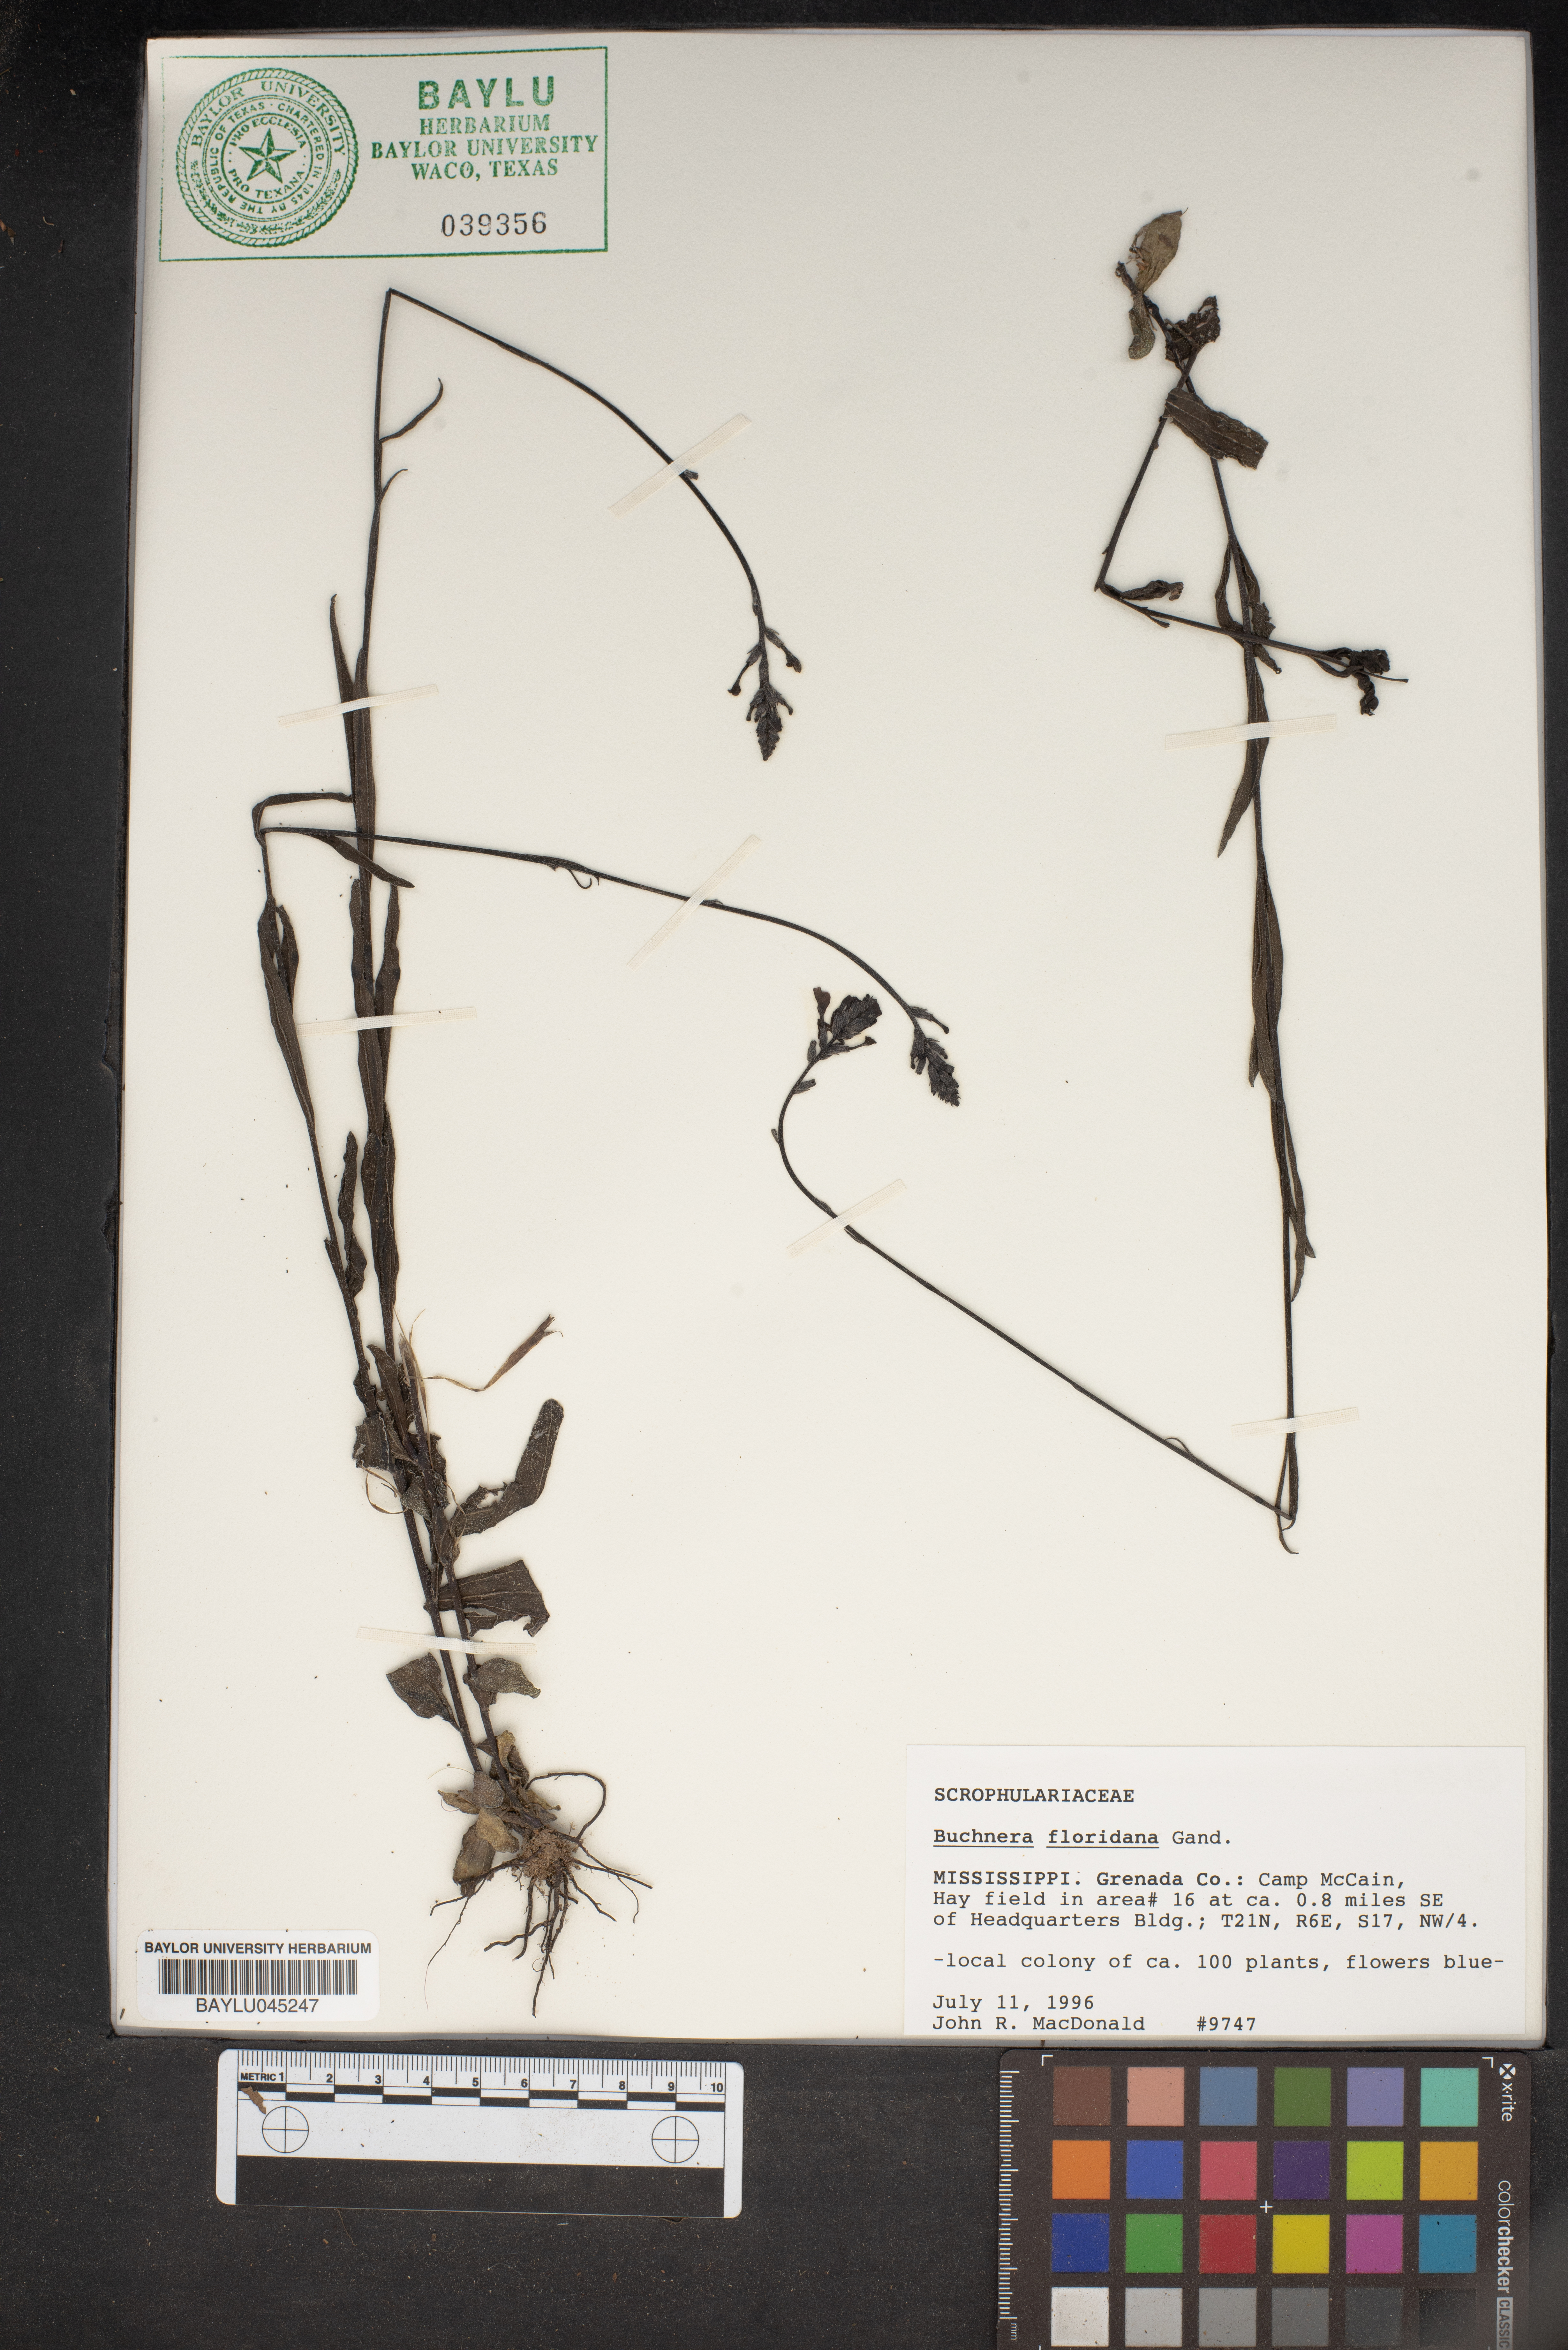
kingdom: Plantae
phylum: Tracheophyta
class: Magnoliopsida
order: Lamiales
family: Orobanchaceae
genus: Buchnera
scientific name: Buchnera floridana
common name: Florida bluehearts
